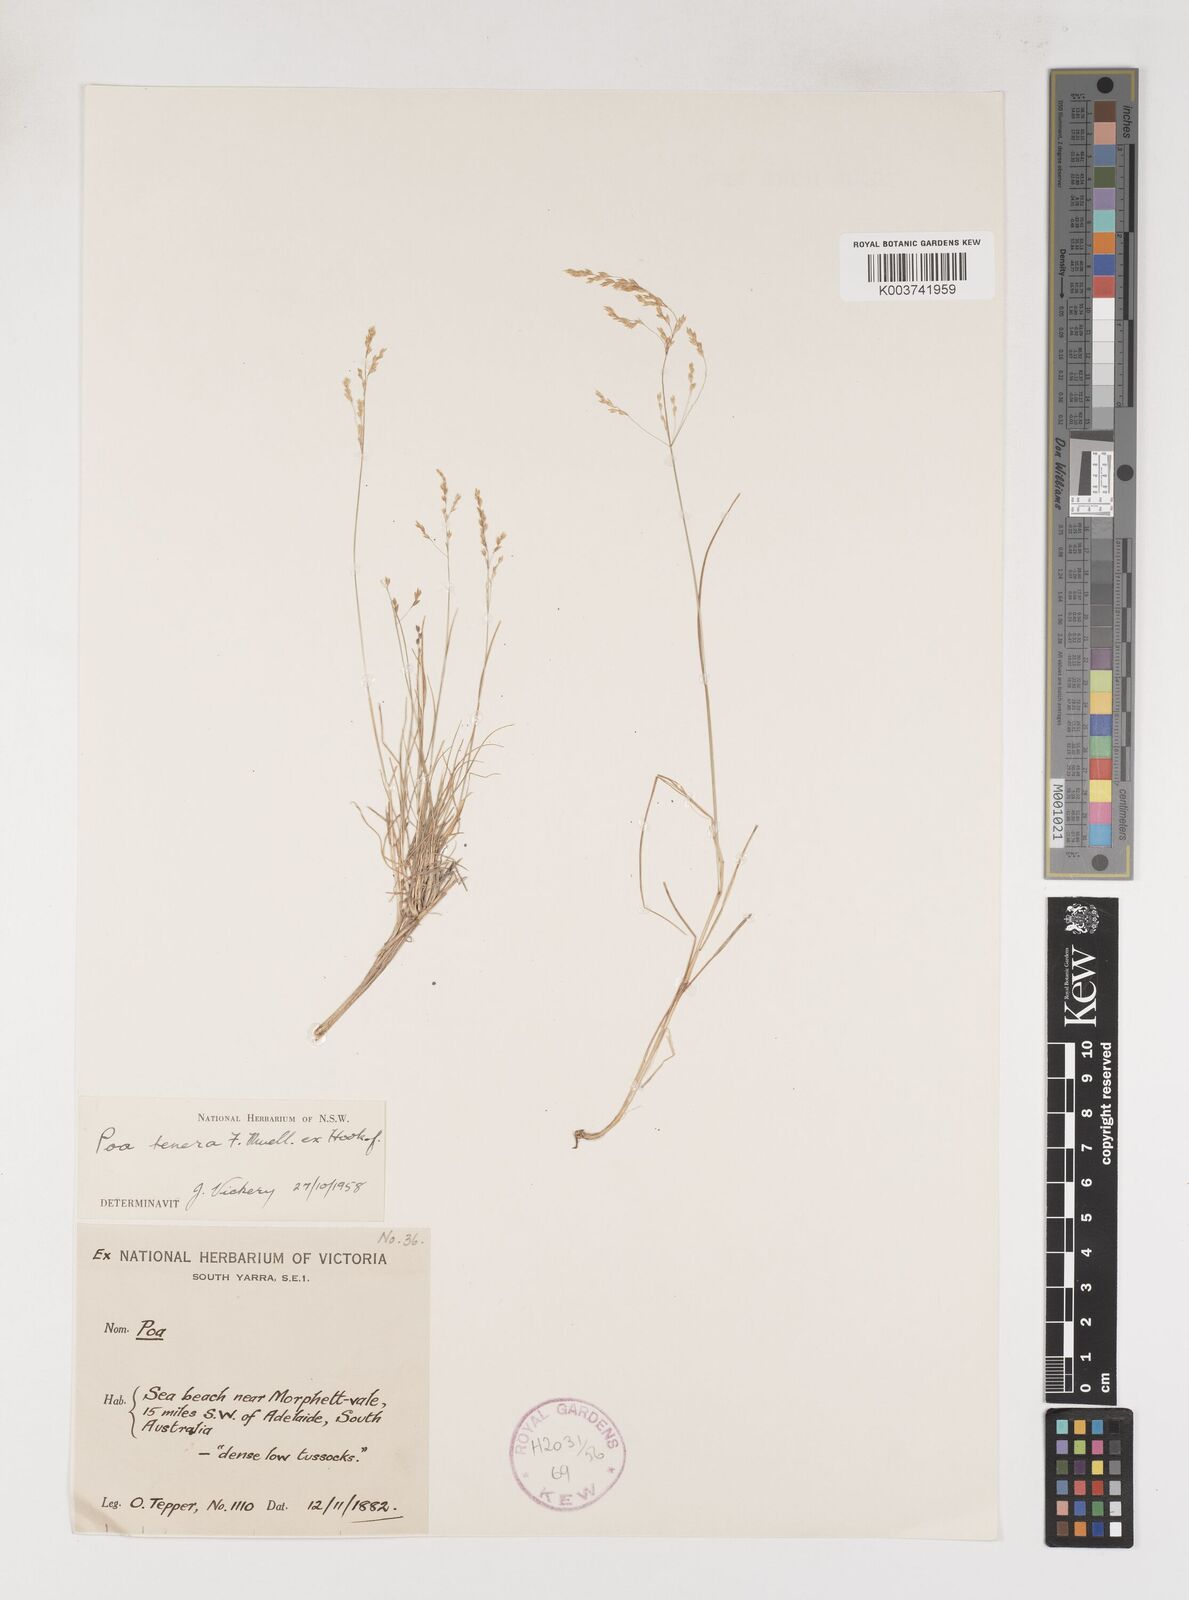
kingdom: Plantae
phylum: Tracheophyta
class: Liliopsida
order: Poales
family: Poaceae
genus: Poa
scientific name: Poa tenera
